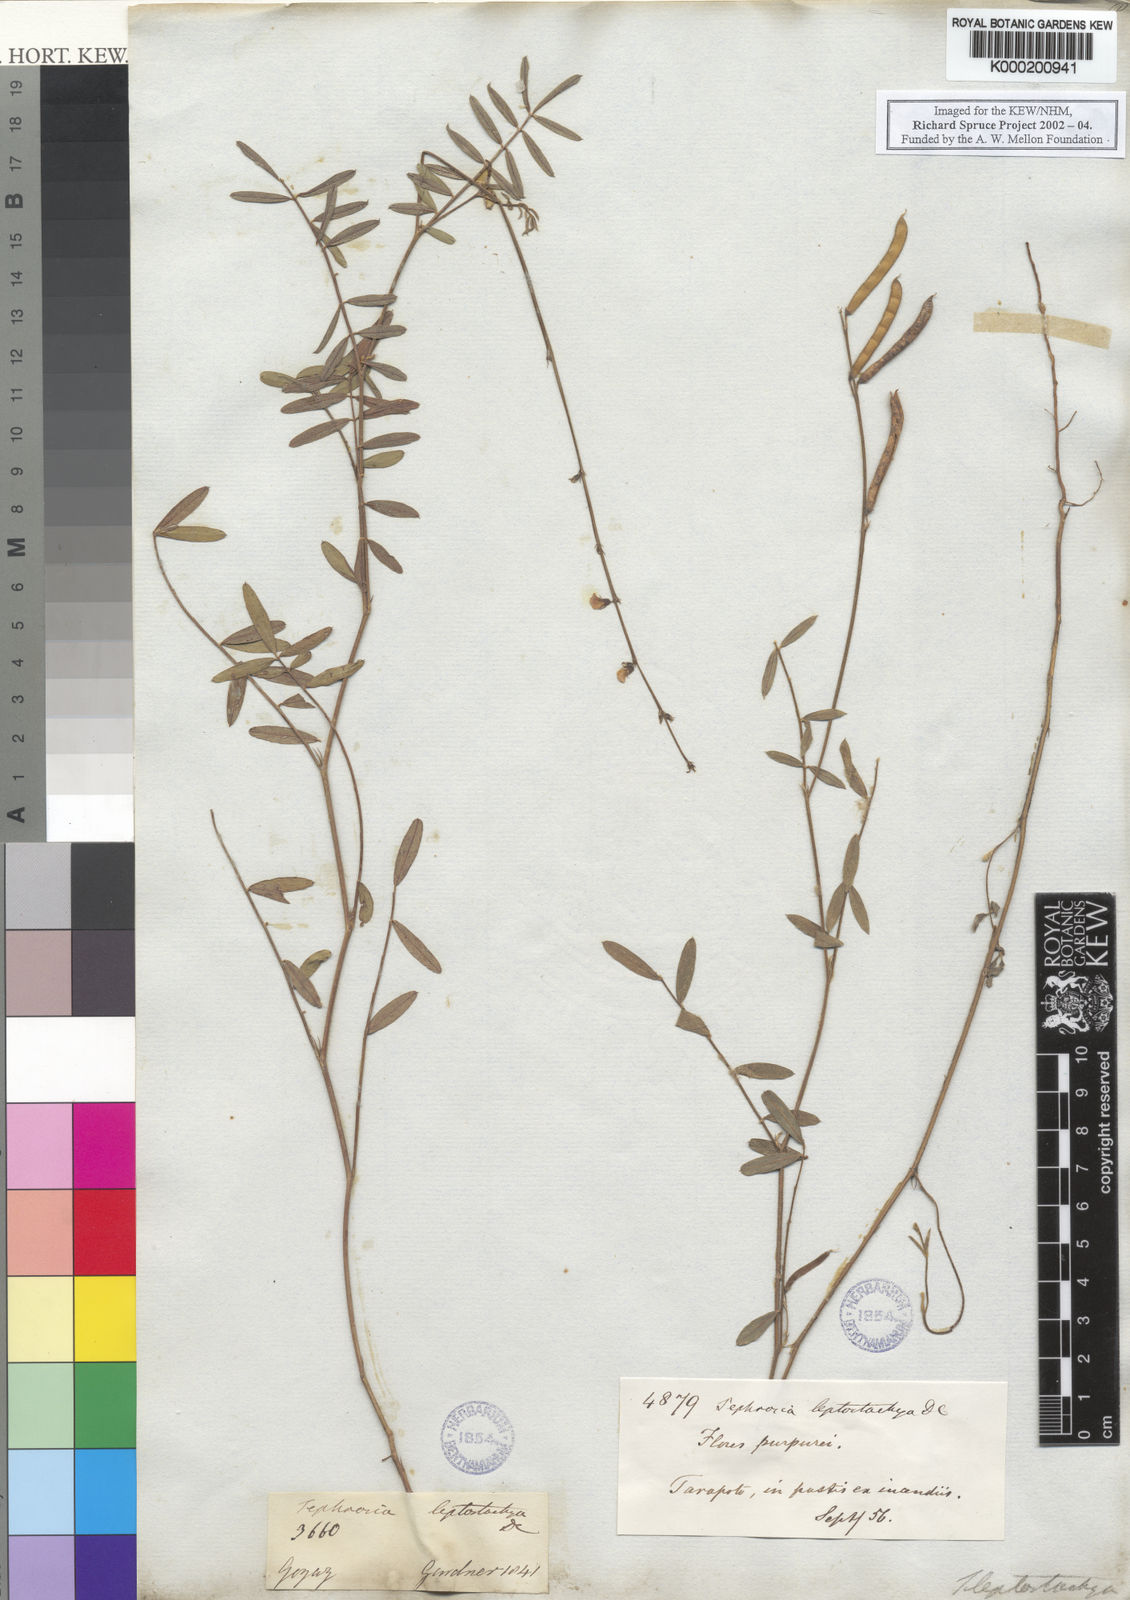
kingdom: Plantae
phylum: Tracheophyta
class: Magnoliopsida
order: Fabales
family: Fabaceae
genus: Tephrosia
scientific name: Tephrosia purpurea
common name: Fishpoison
